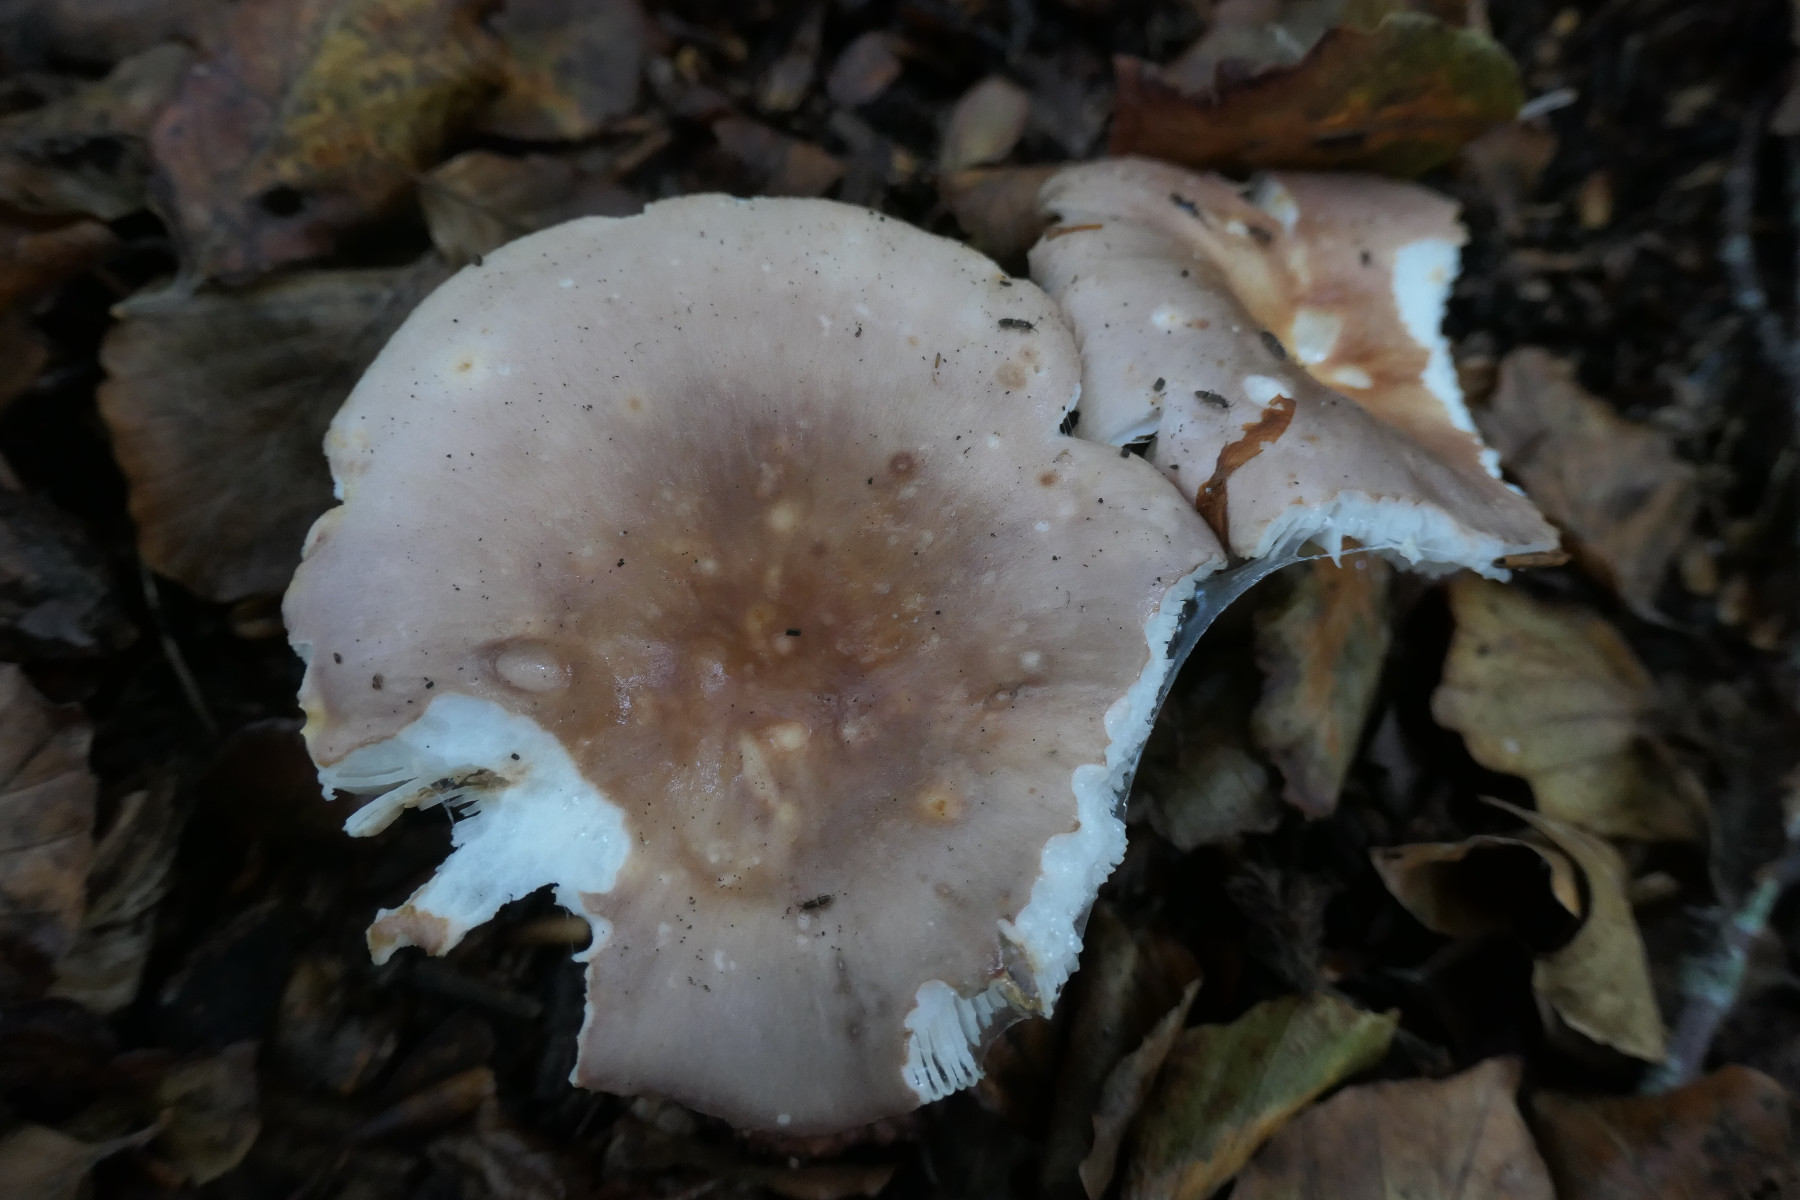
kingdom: Fungi
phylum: Basidiomycota
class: Agaricomycetes
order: Russulales
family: Russulaceae
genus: Russula
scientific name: Russula vesca
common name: spiselig skørhat
